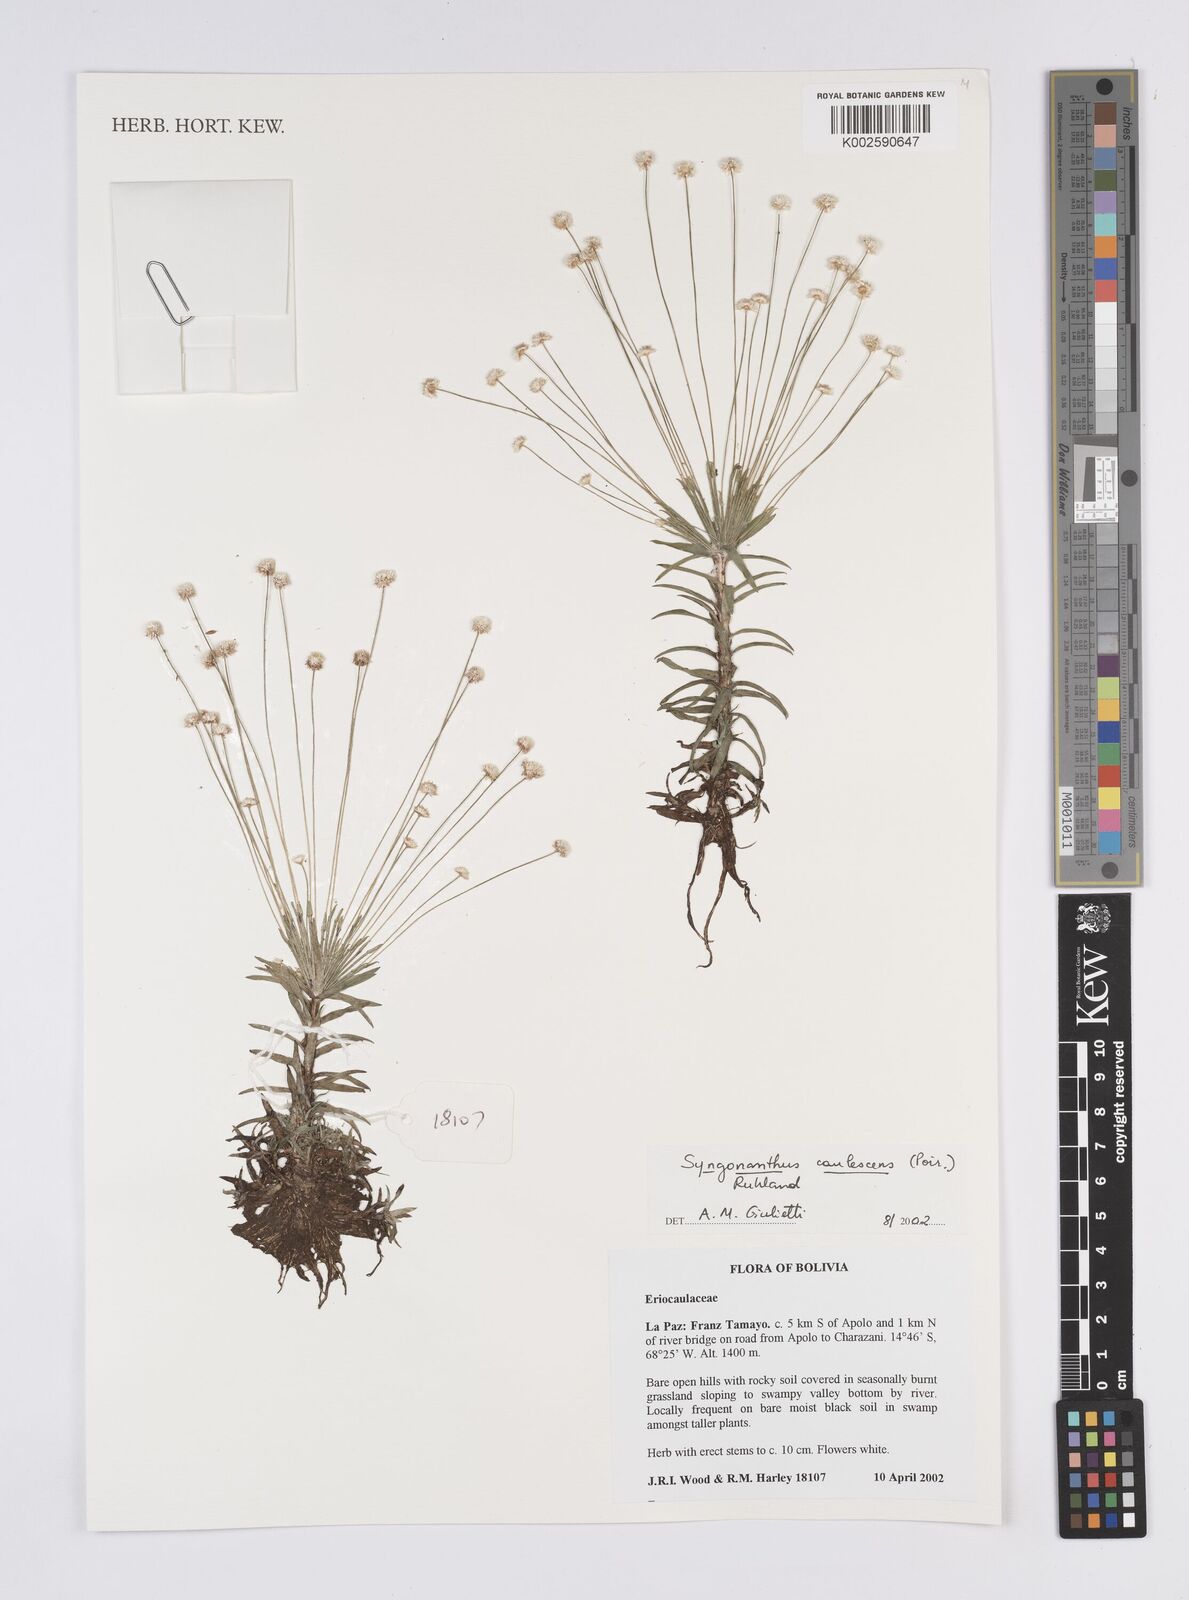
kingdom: Plantae
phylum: Tracheophyta
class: Liliopsida
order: Poales
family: Eriocaulaceae
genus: Syngonanthus
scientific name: Syngonanthus caulescens
